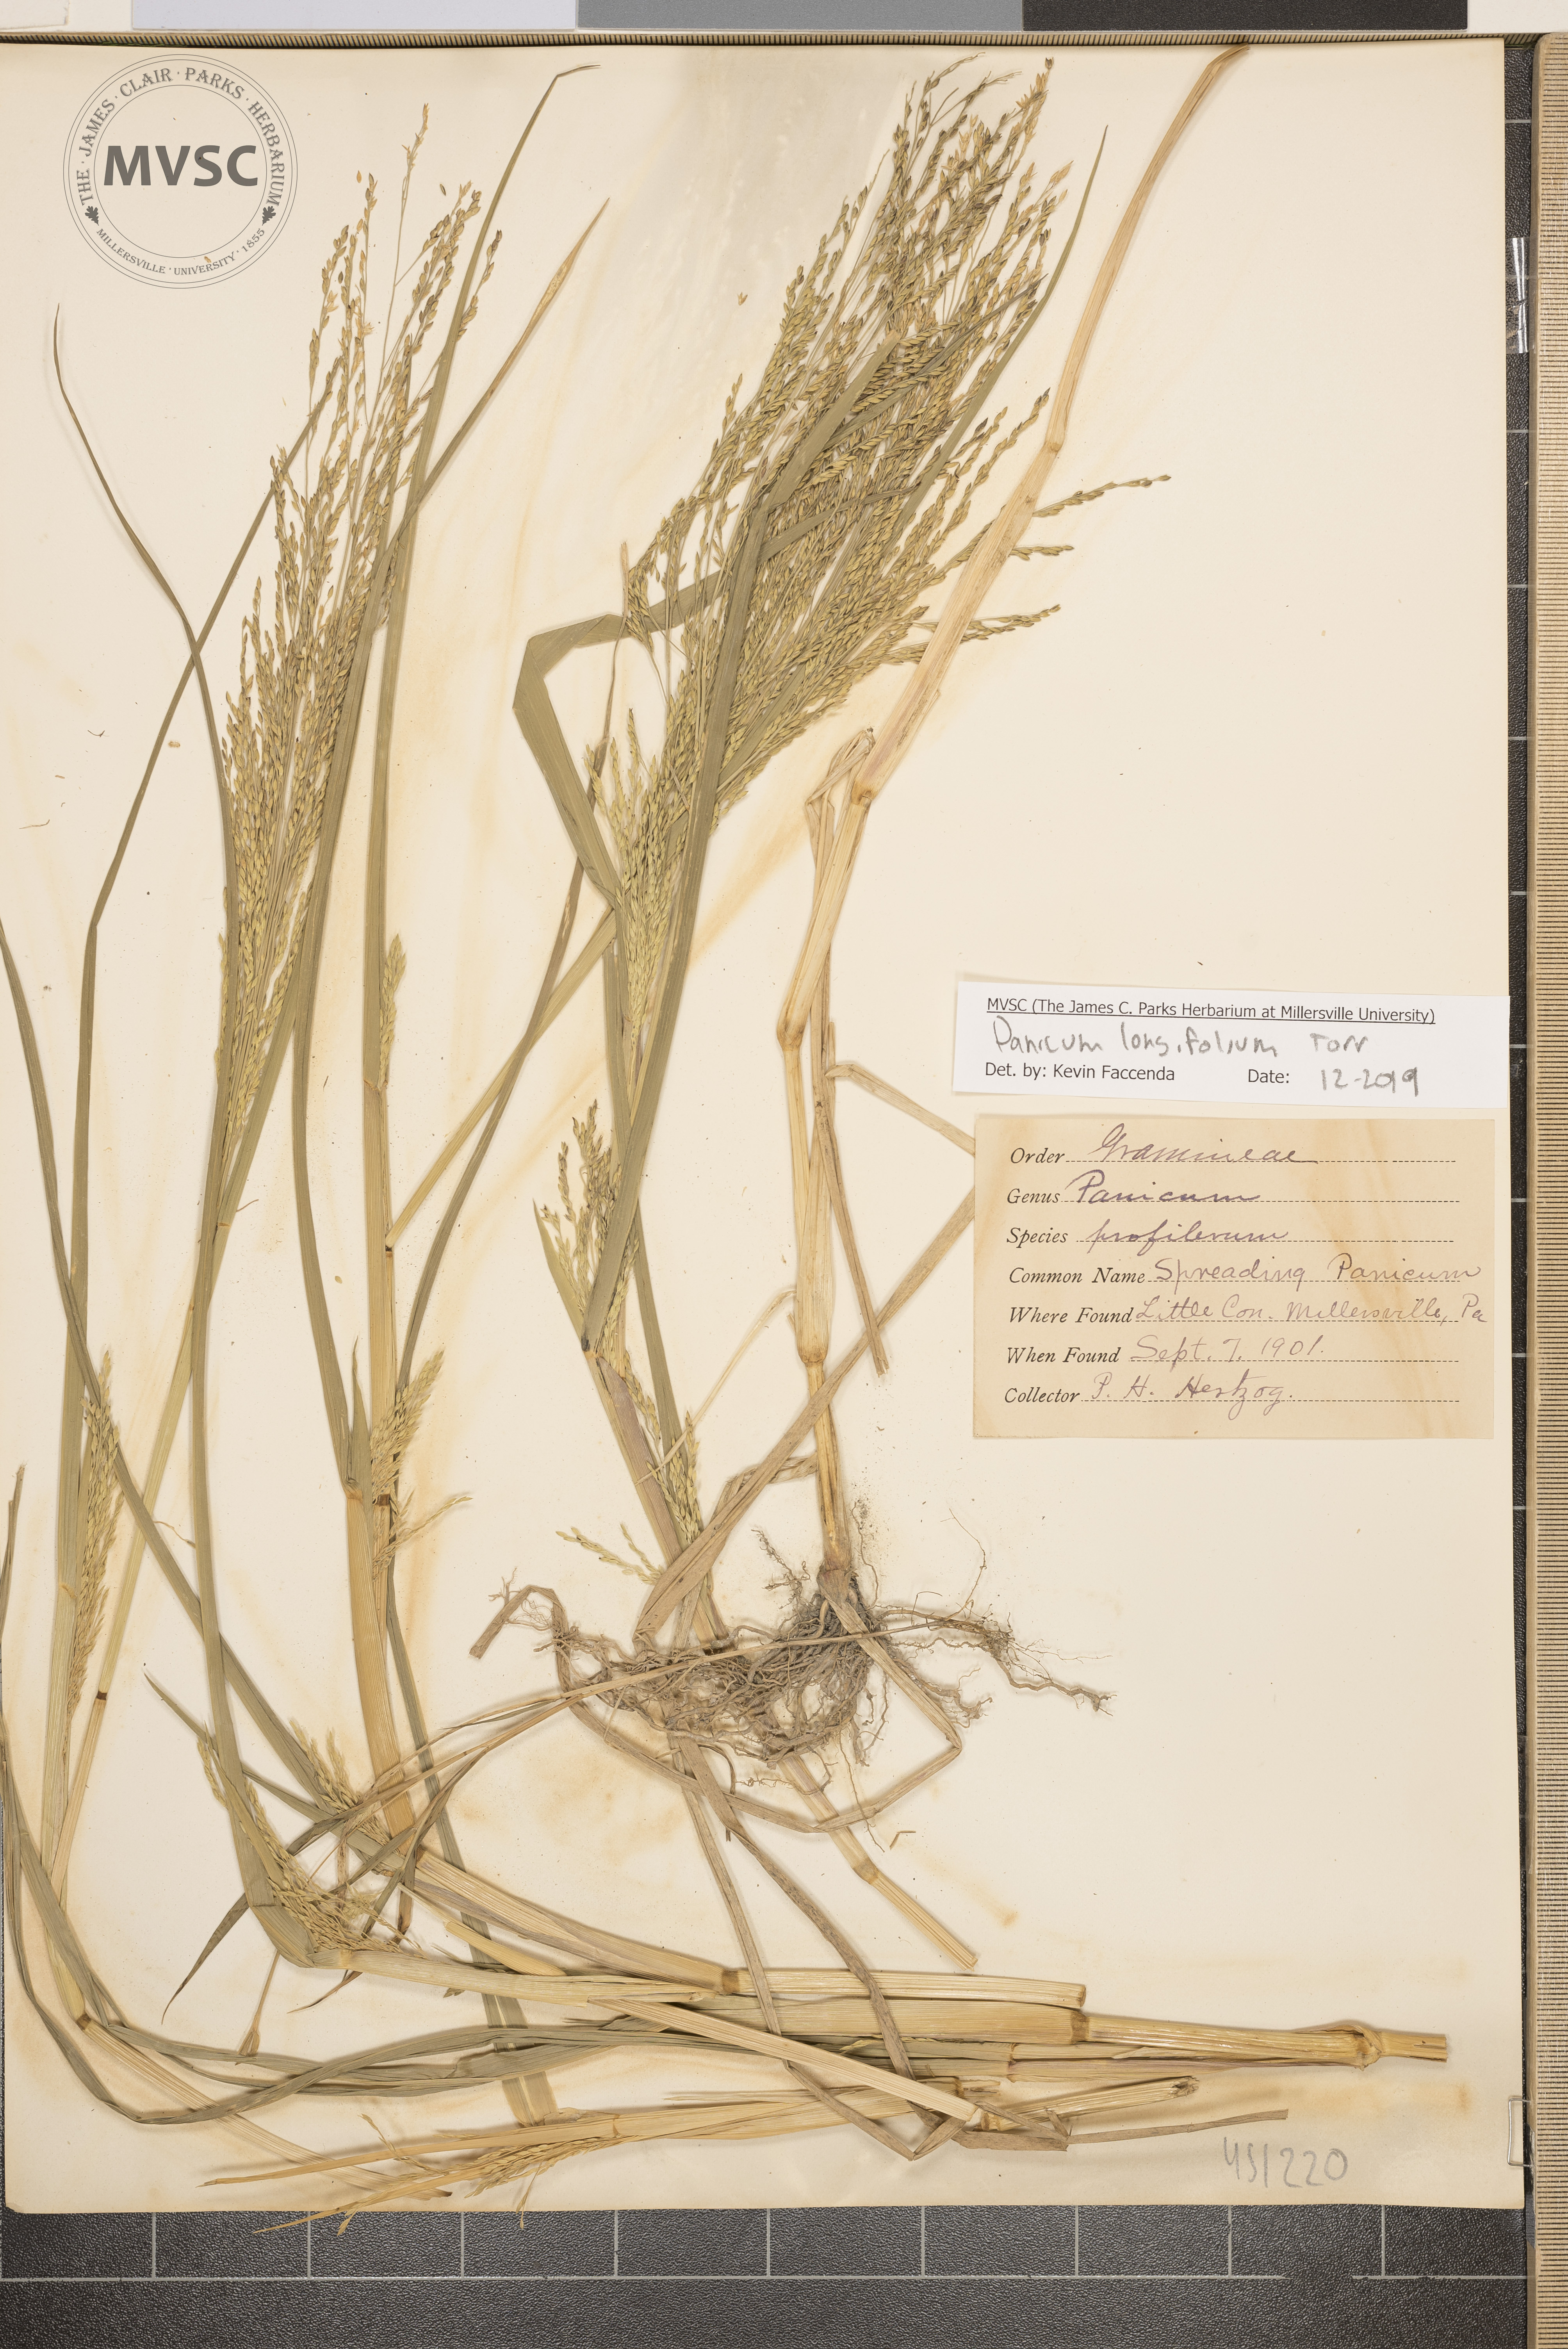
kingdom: Plantae
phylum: Tracheophyta
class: Liliopsida
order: Poales
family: Poaceae
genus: Coleataenia
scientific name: Coleataenia longifolia
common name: Long-leaved panicgrass
